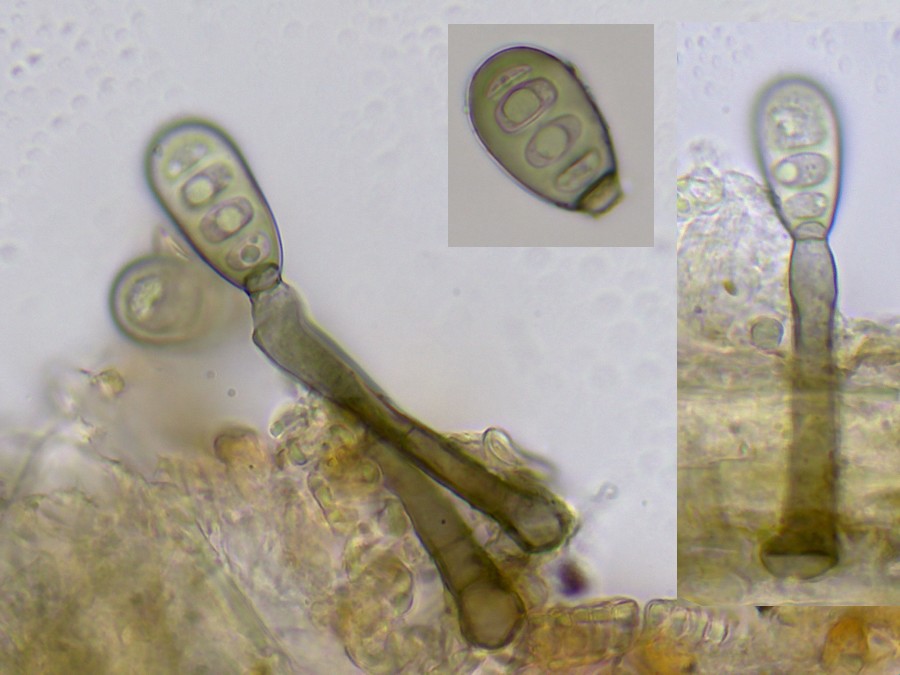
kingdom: Fungi
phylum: Ascomycota
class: Dothideomycetes
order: Pleosporales
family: Pleosporaceae
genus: Pyrenophora
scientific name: Pyrenophora biseptata
